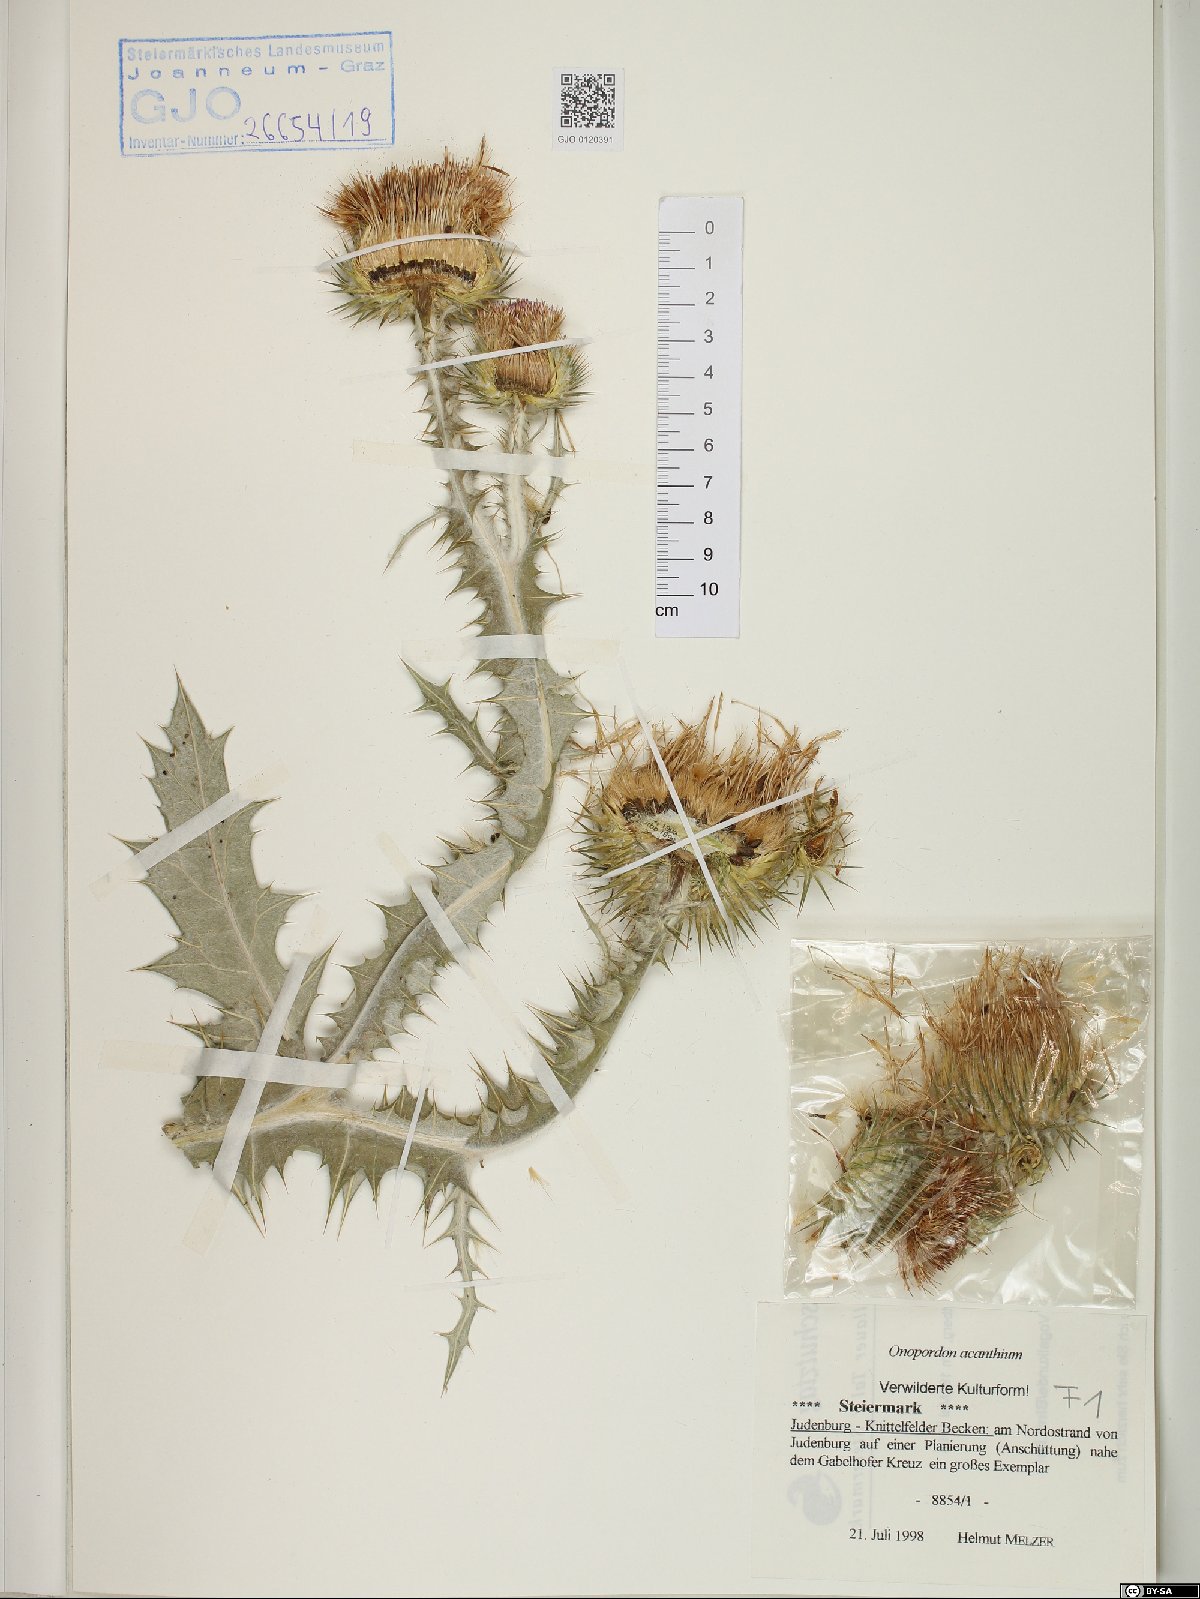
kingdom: Plantae
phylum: Tracheophyta
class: Magnoliopsida
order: Asterales
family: Asteraceae
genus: Onopordum
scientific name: Onopordum acanthium
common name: Scotch thistle
